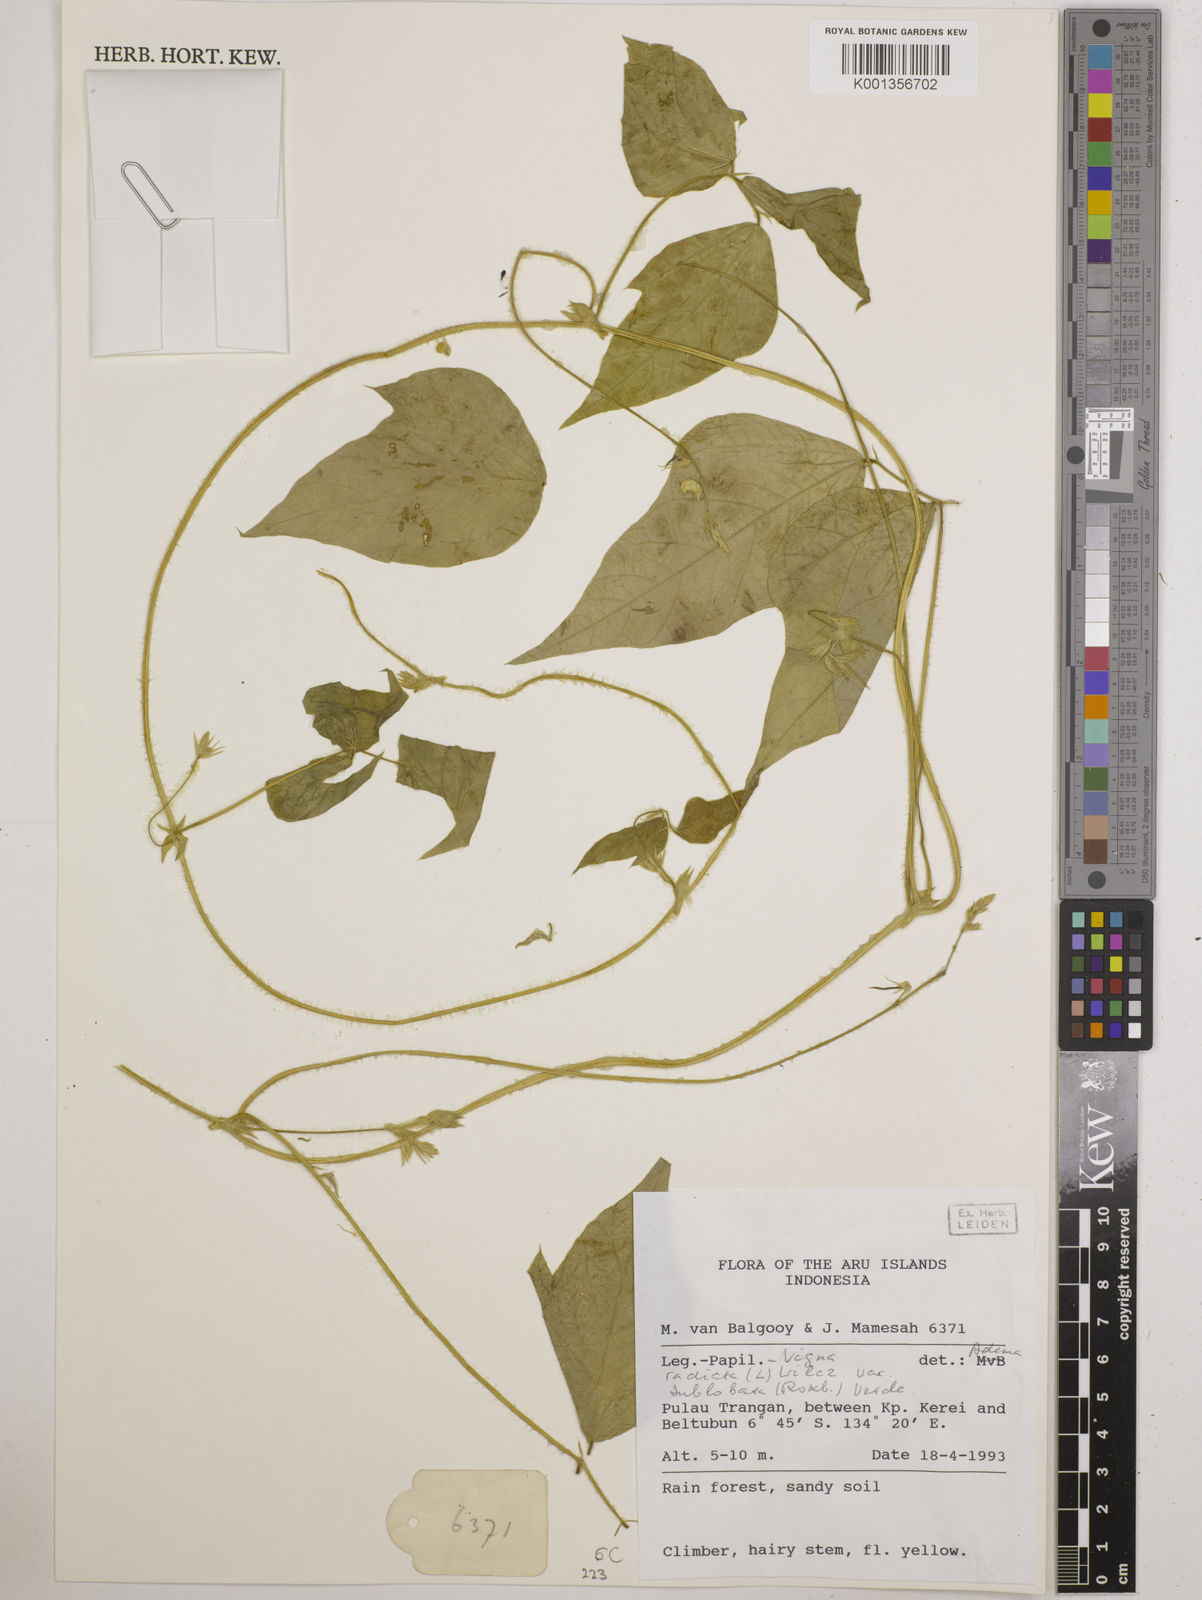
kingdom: Plantae
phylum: Tracheophyta
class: Magnoliopsida
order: Fabales
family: Fabaceae
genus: Vigna
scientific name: Vigna radiata
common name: Mung-bean
